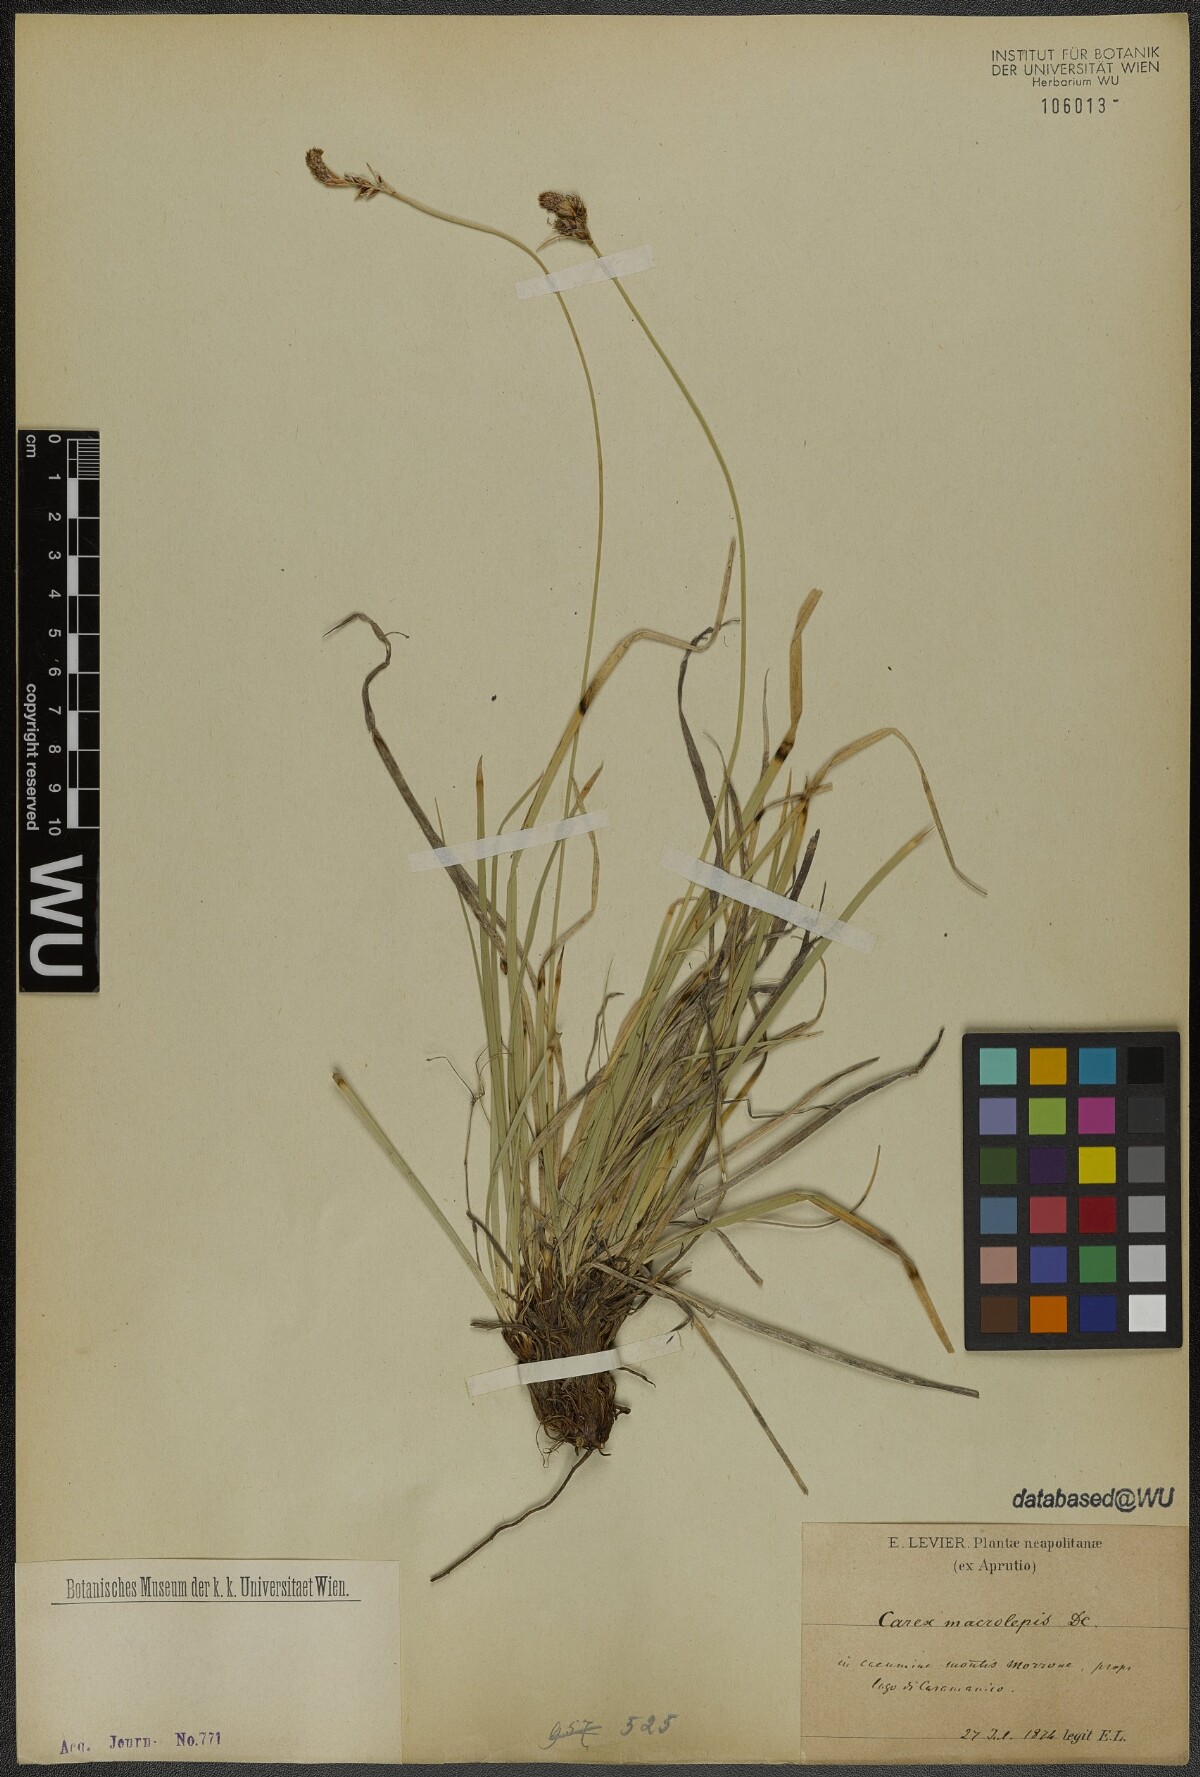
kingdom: Plantae
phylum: Tracheophyta
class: Liliopsida
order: Poales
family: Cyperaceae
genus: Carex
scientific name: Carex macrolepis
